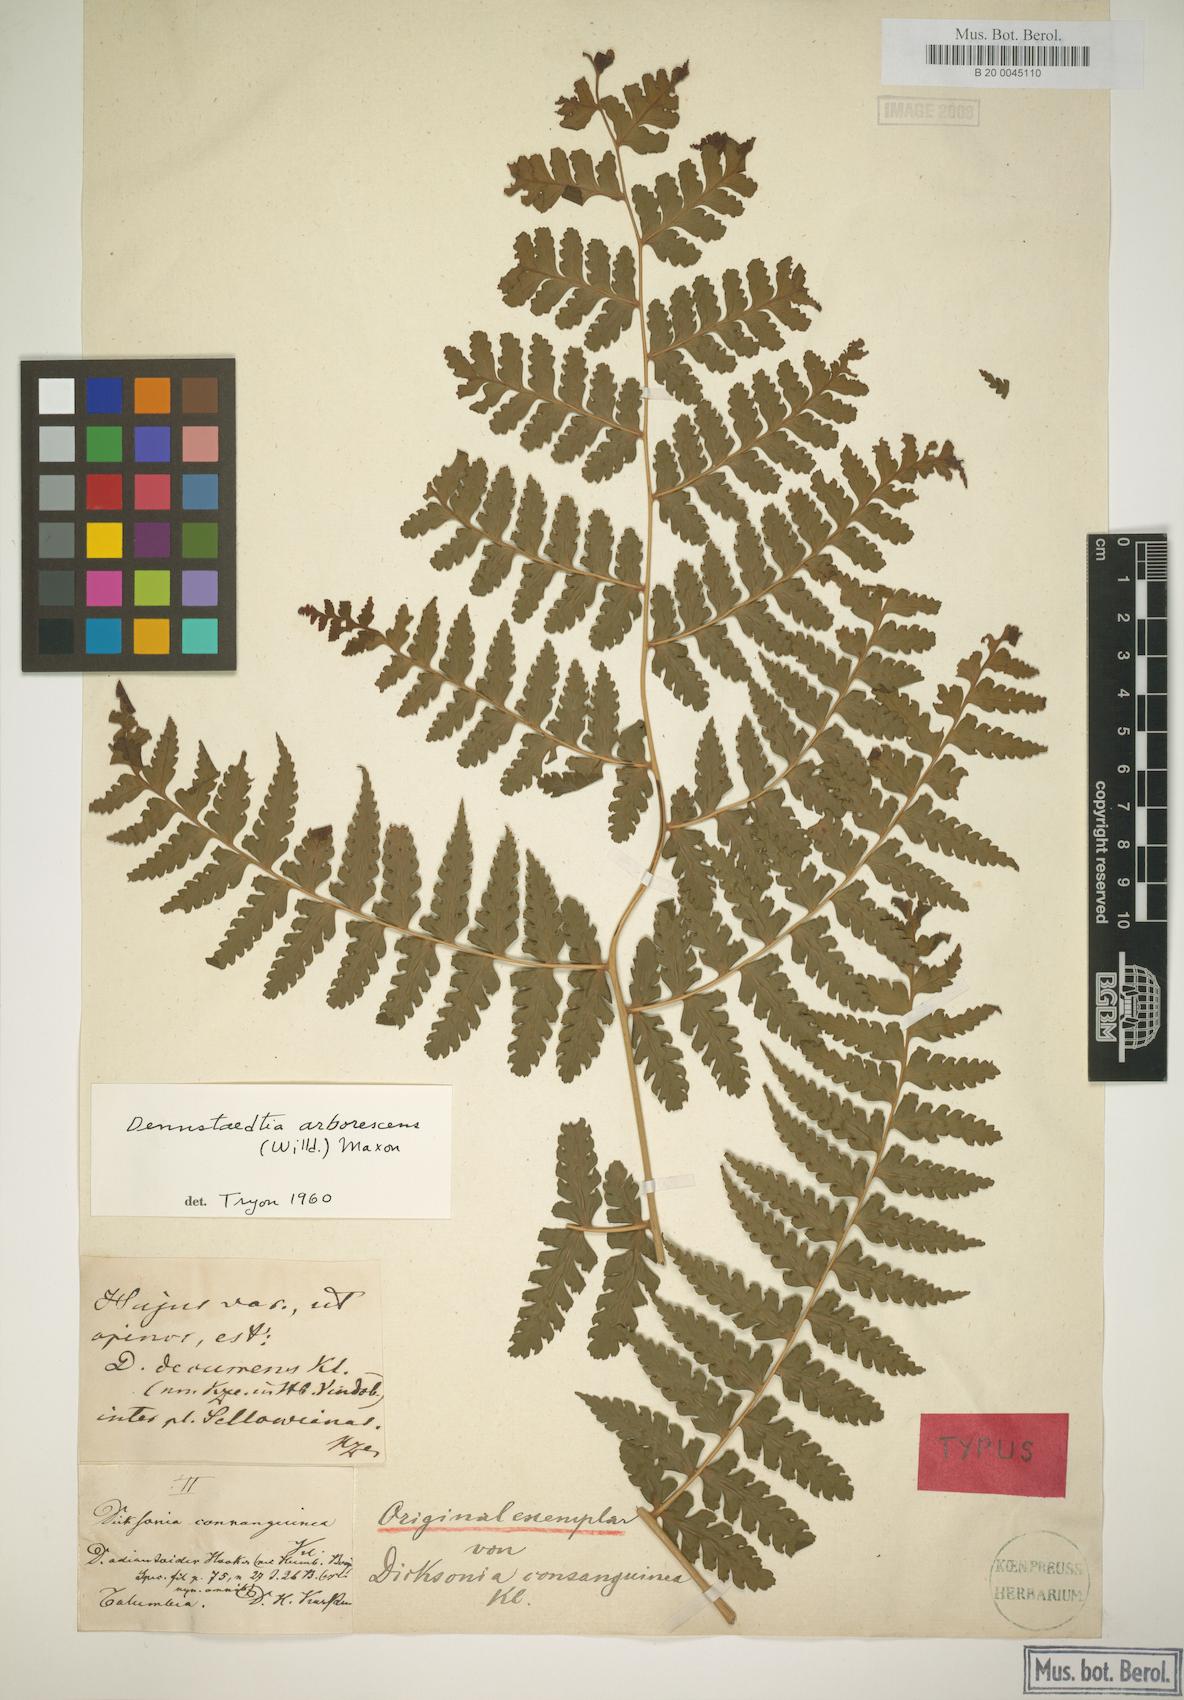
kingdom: Plantae
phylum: Tracheophyta
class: Polypodiopsida
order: Polypodiales
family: Dennstaedtiaceae
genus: Dennstaedtia
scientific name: Dennstaedtia obtusifolia
